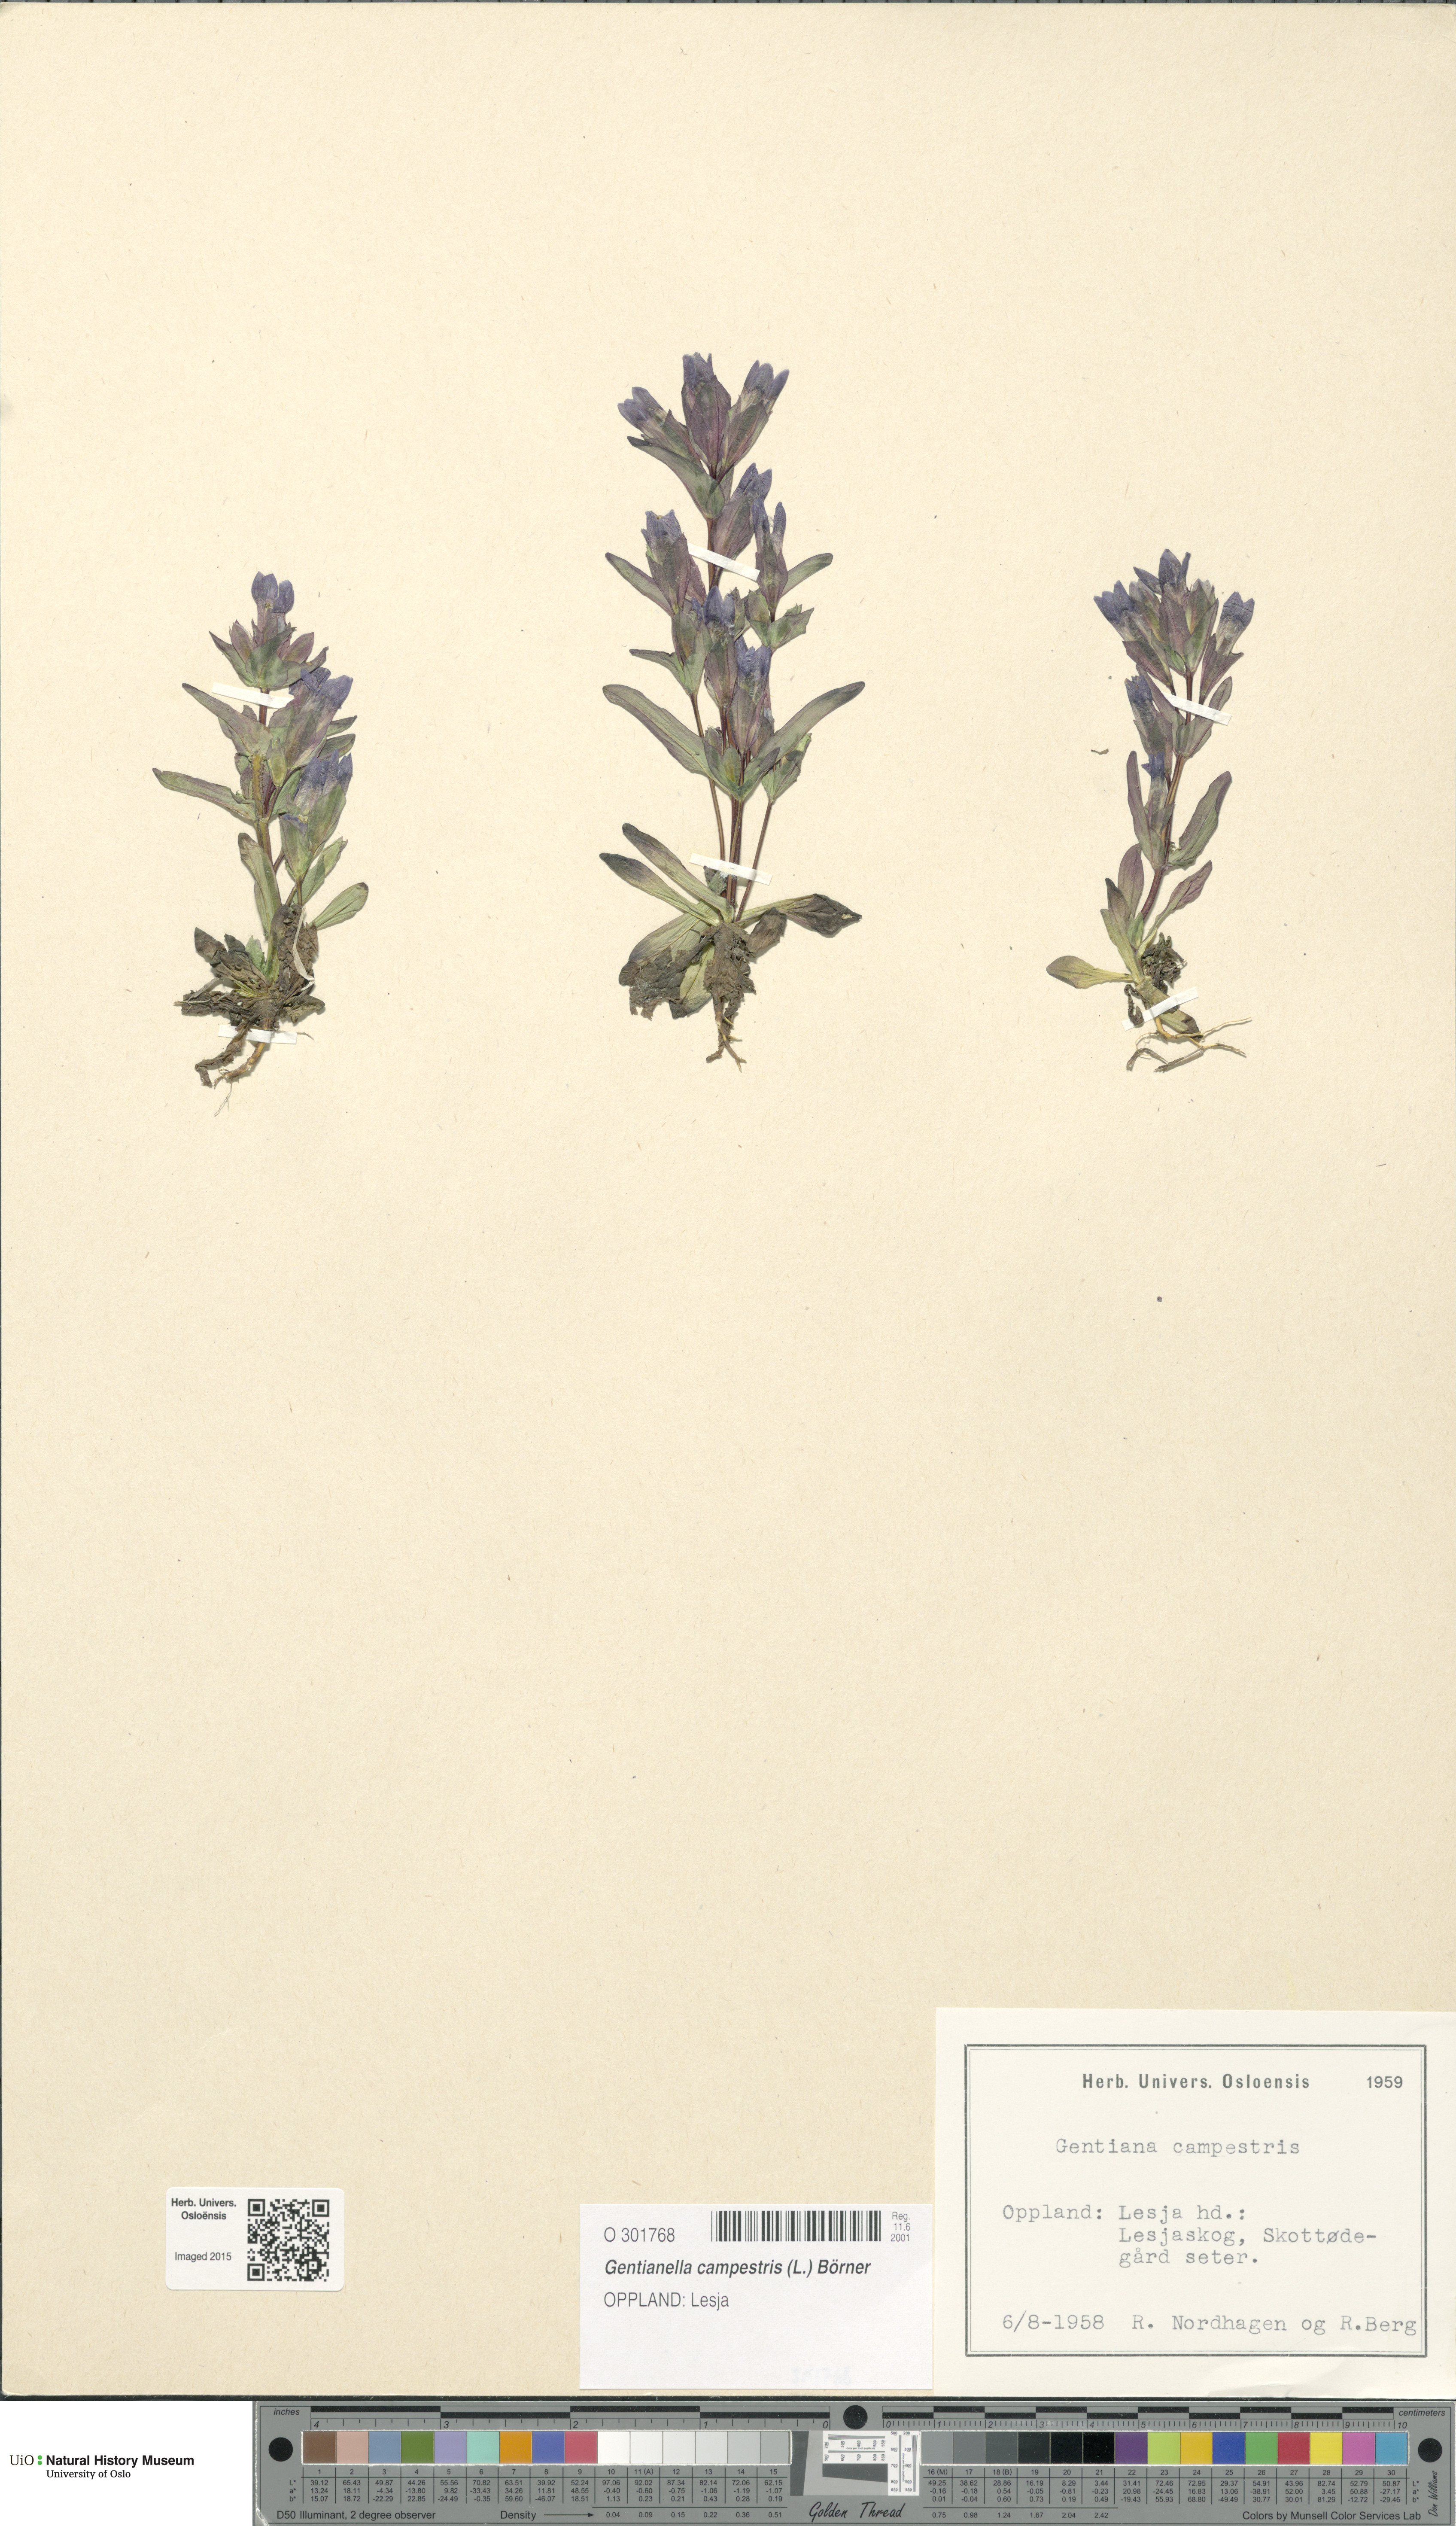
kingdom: Plantae
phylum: Tracheophyta
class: Magnoliopsida
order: Gentianales
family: Gentianaceae
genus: Gentianella
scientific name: Gentianella campestris
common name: Field gentian
